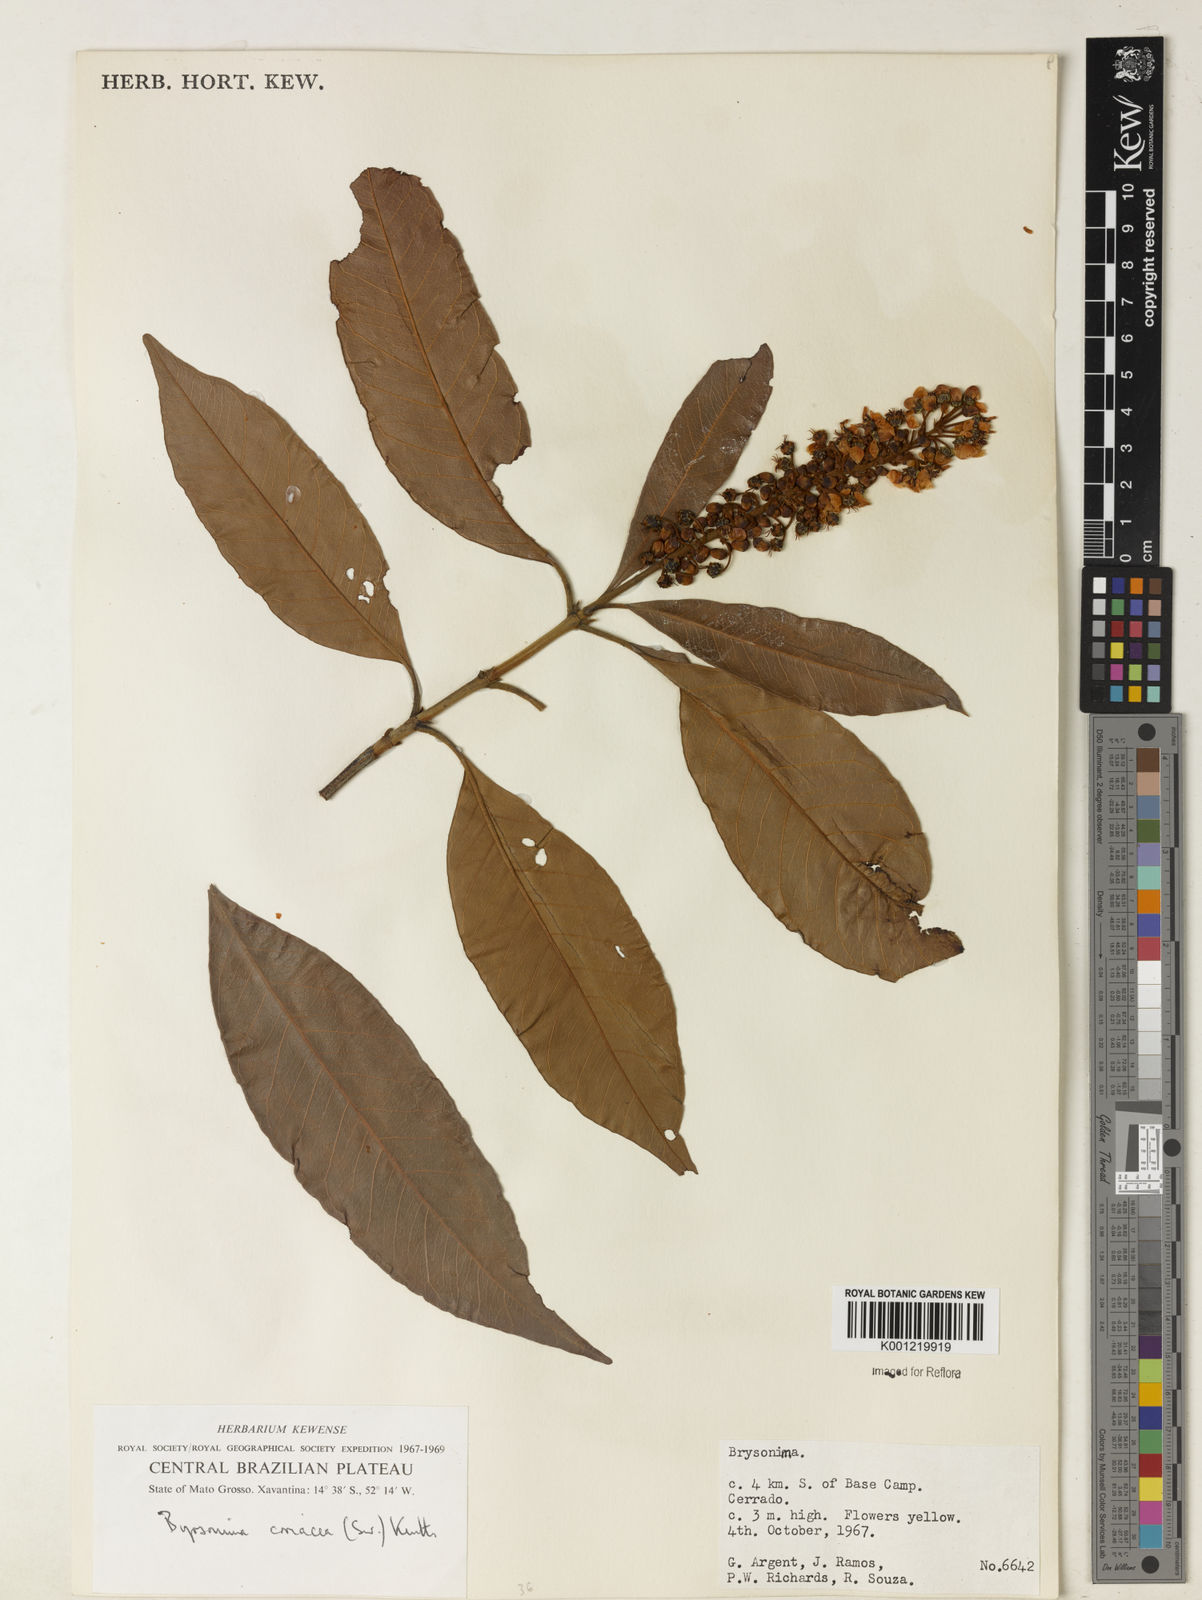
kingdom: Plantae
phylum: Tracheophyta
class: Magnoliopsida
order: Malpighiales
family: Malpighiaceae
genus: Byrsonima
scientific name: Byrsonima
